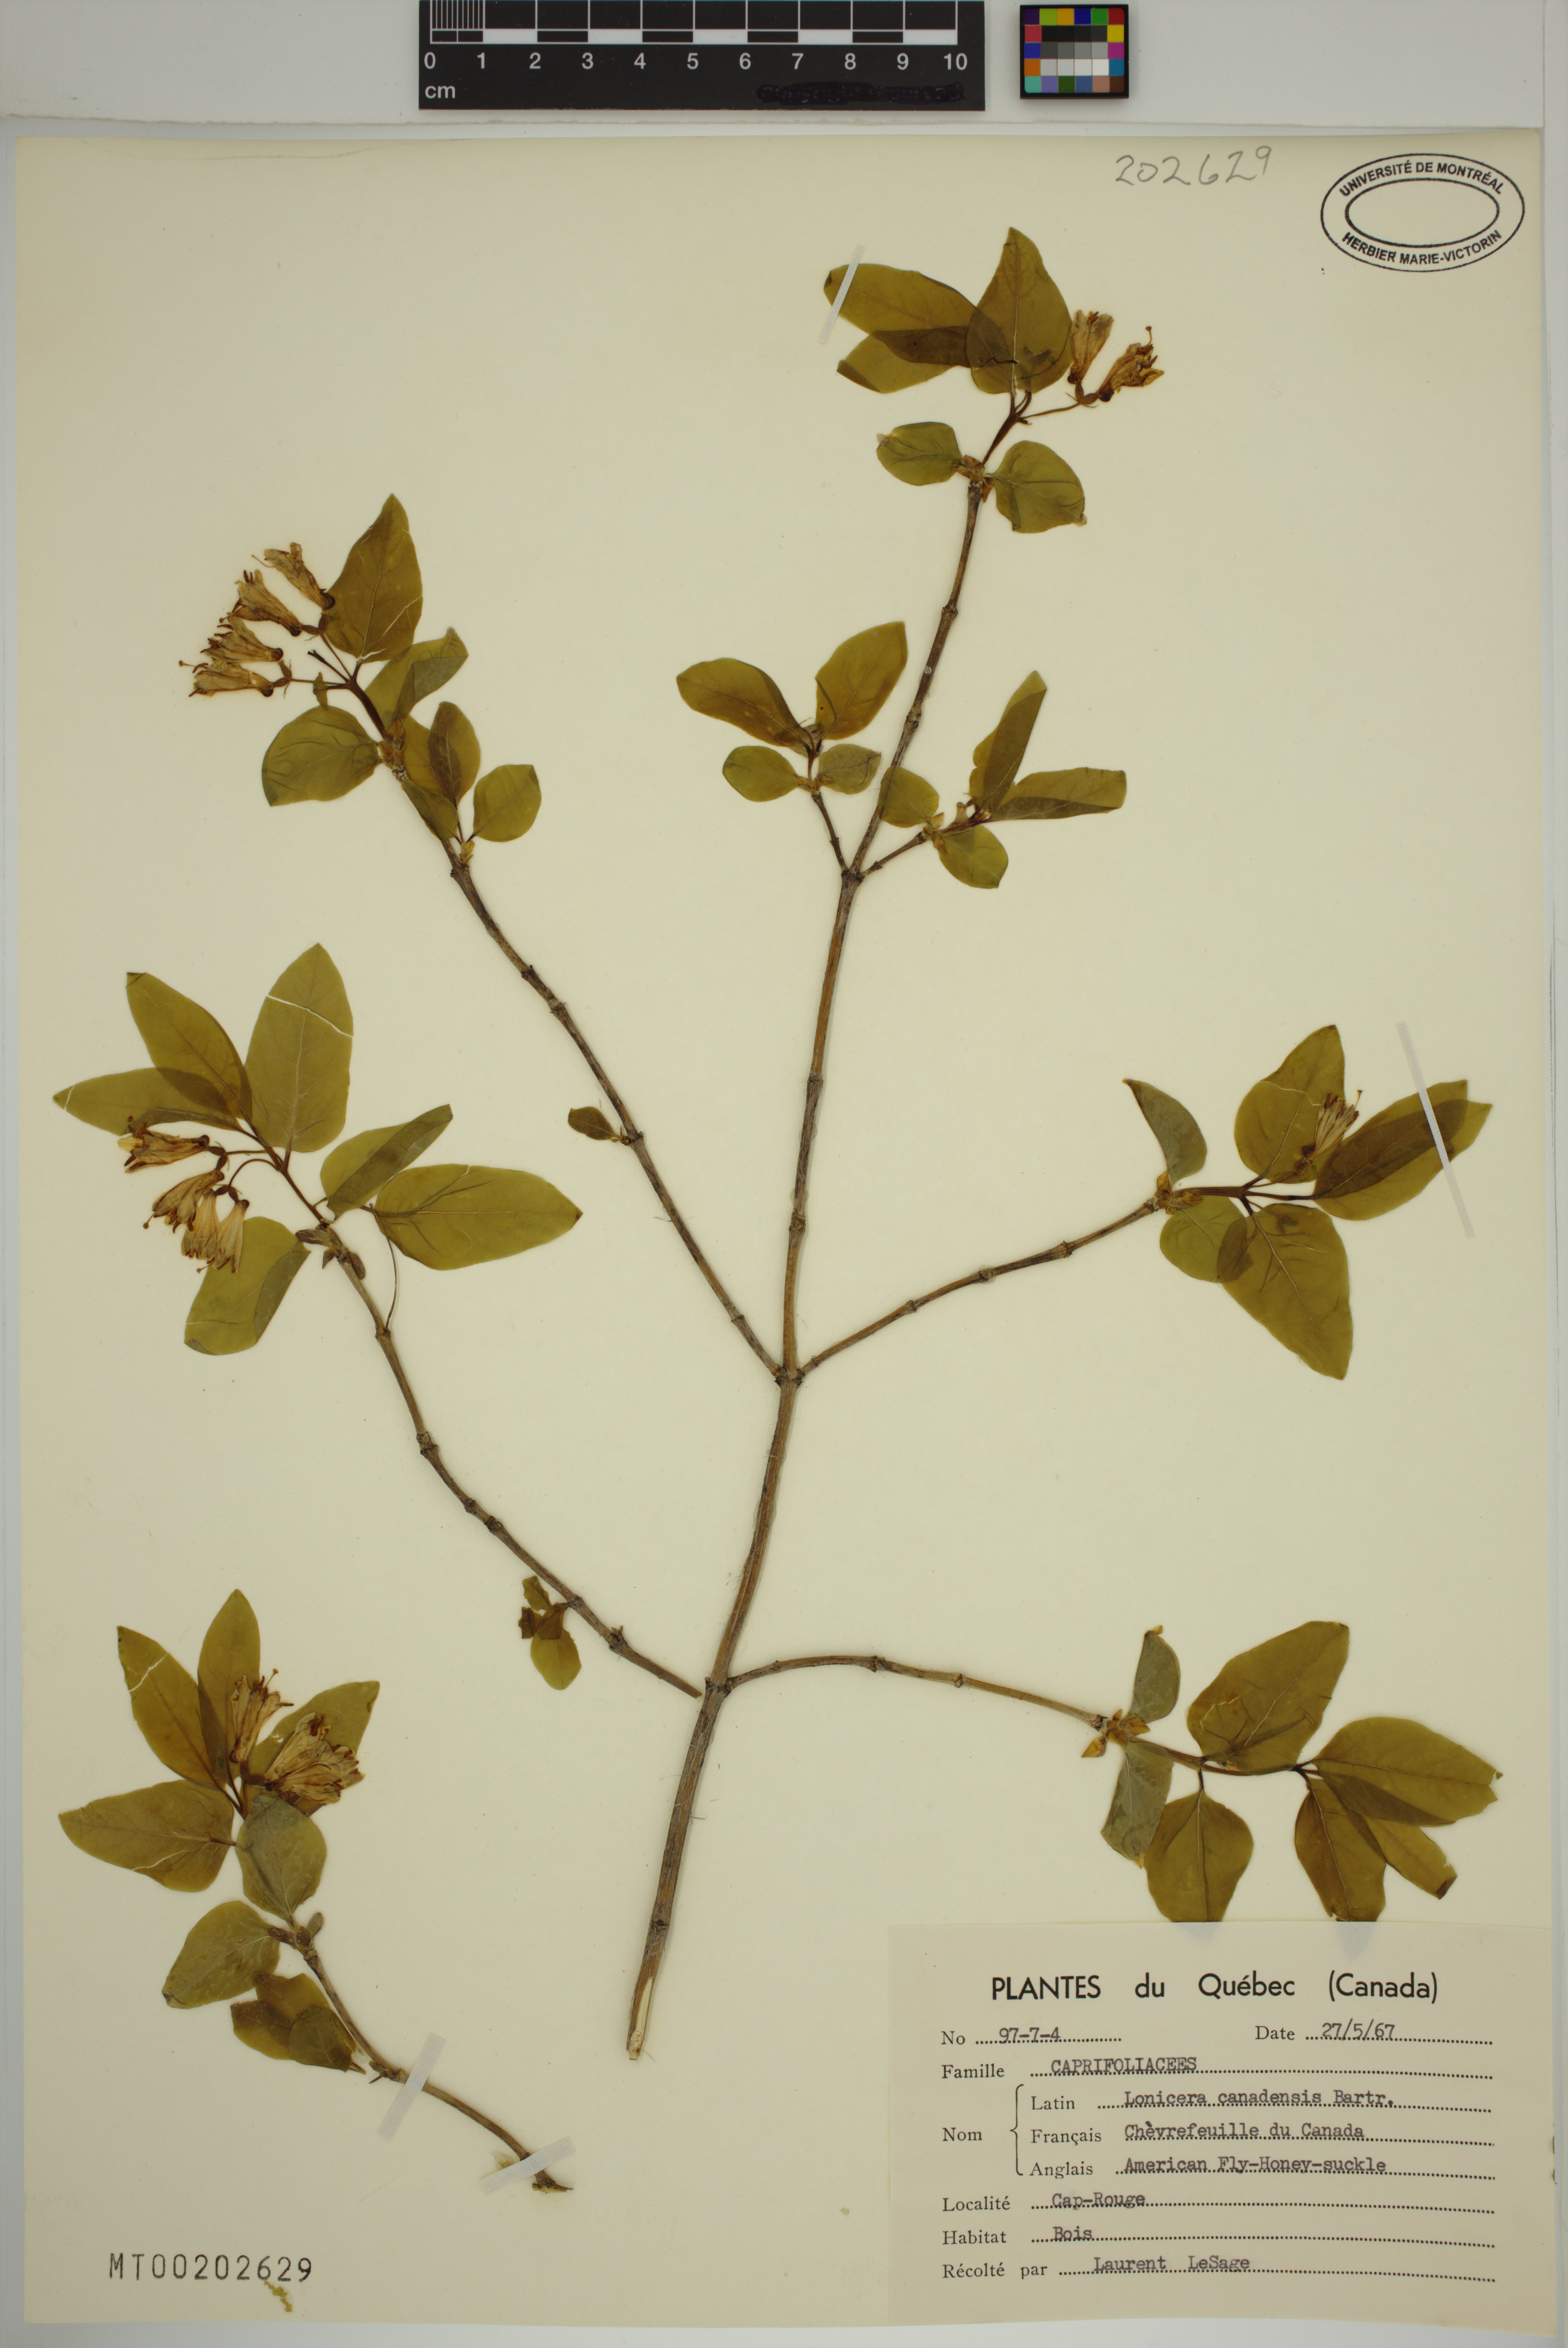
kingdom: Plantae
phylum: Tracheophyta
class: Magnoliopsida
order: Dipsacales
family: Caprifoliaceae
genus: Lonicera
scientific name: Lonicera canadensis
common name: American fly-honeysuckle
